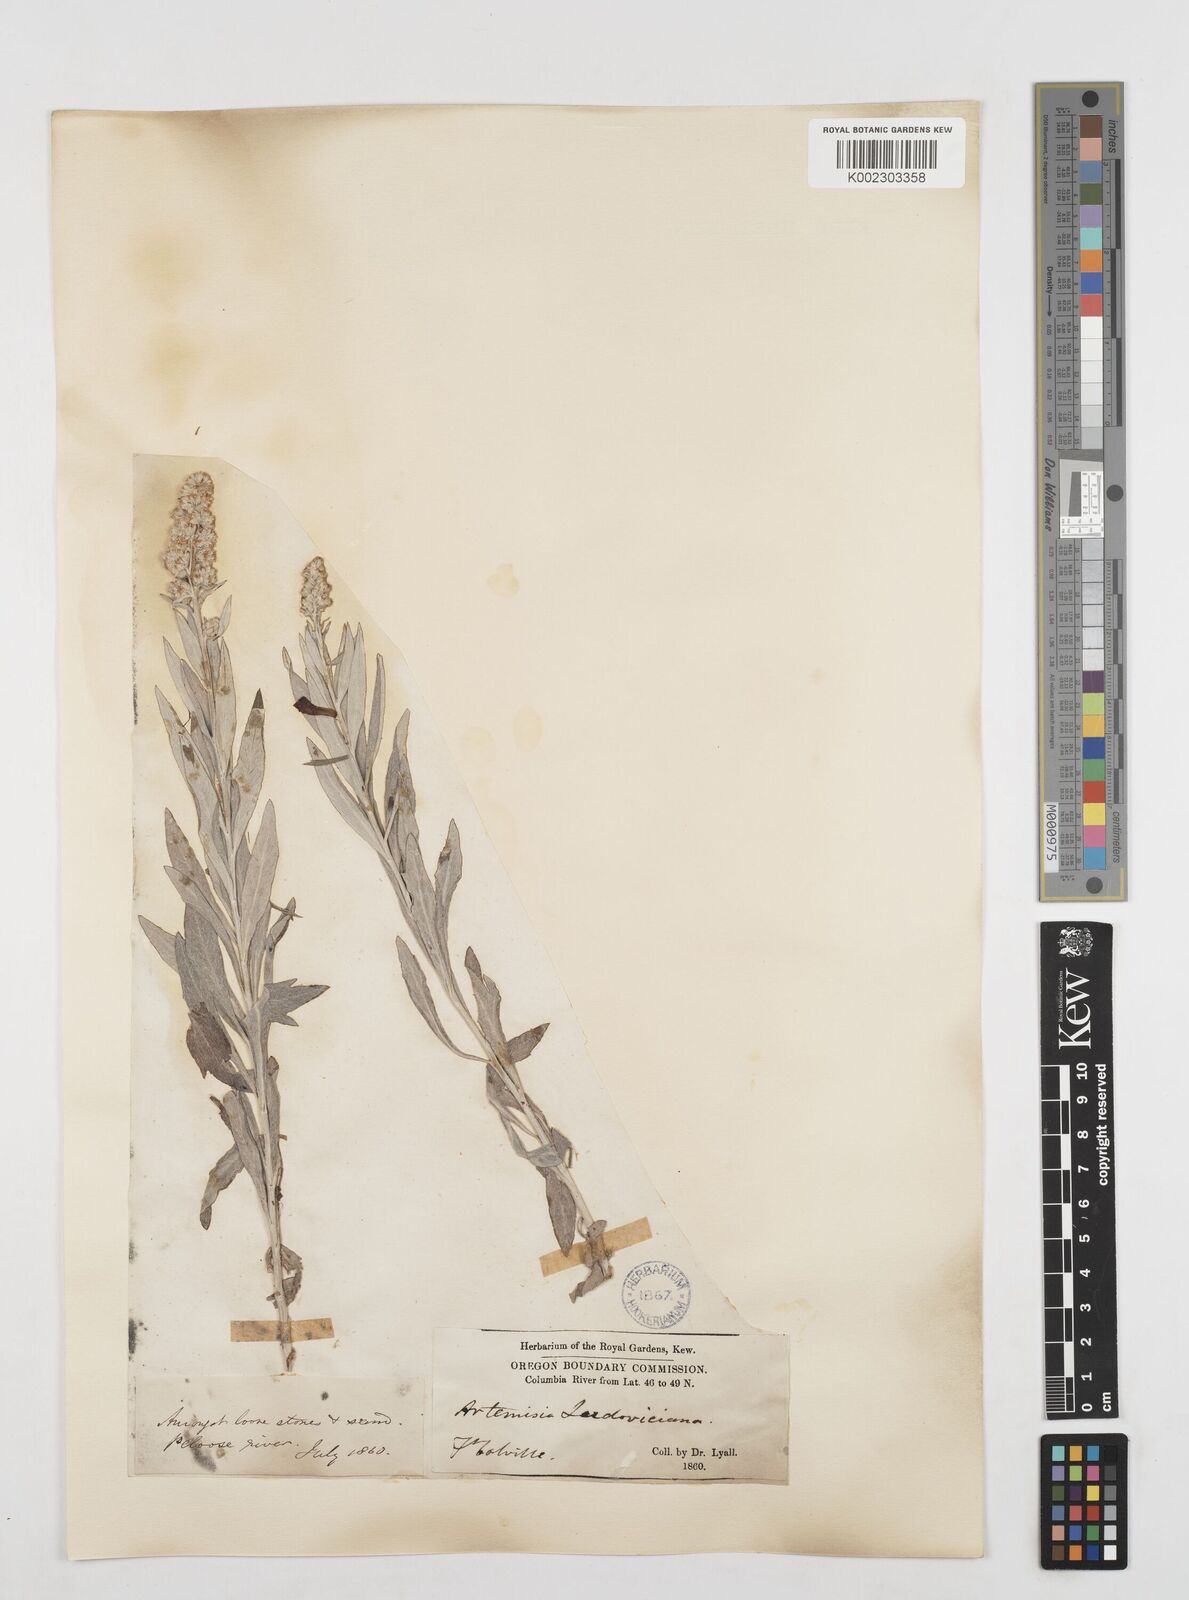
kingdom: Plantae
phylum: Tracheophyta
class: Magnoliopsida
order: Asterales
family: Asteraceae
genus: Artemisia
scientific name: Artemisia
